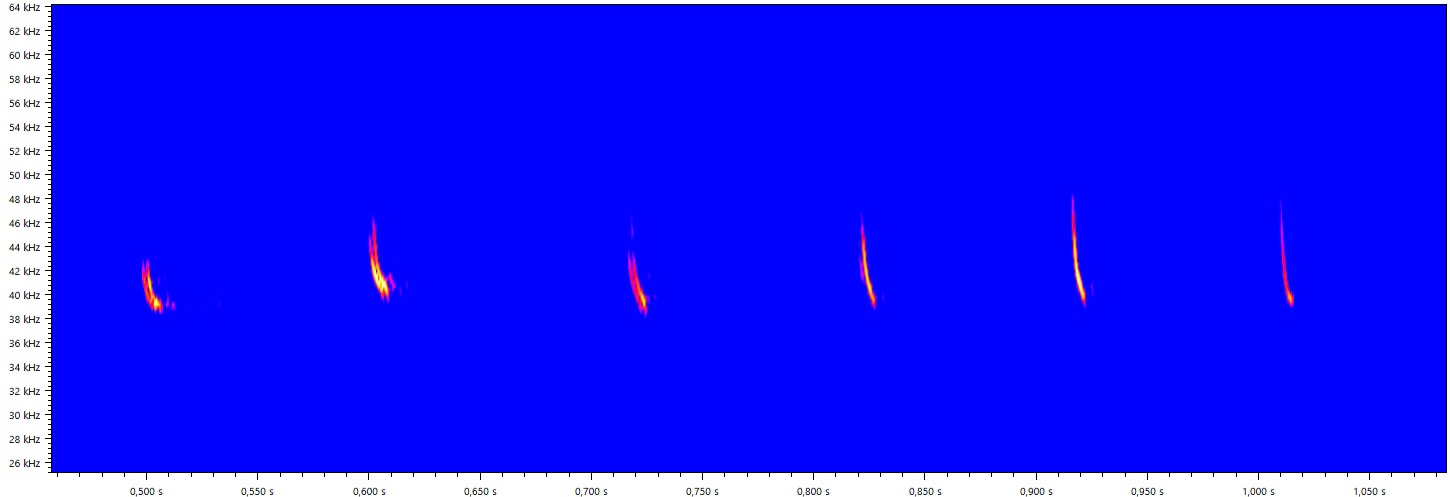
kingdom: Animalia
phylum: Chordata
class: Mammalia
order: Chiroptera
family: Vespertilionidae
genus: Pipistrellus
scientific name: Pipistrellus nathusii
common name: Troldflagermus
